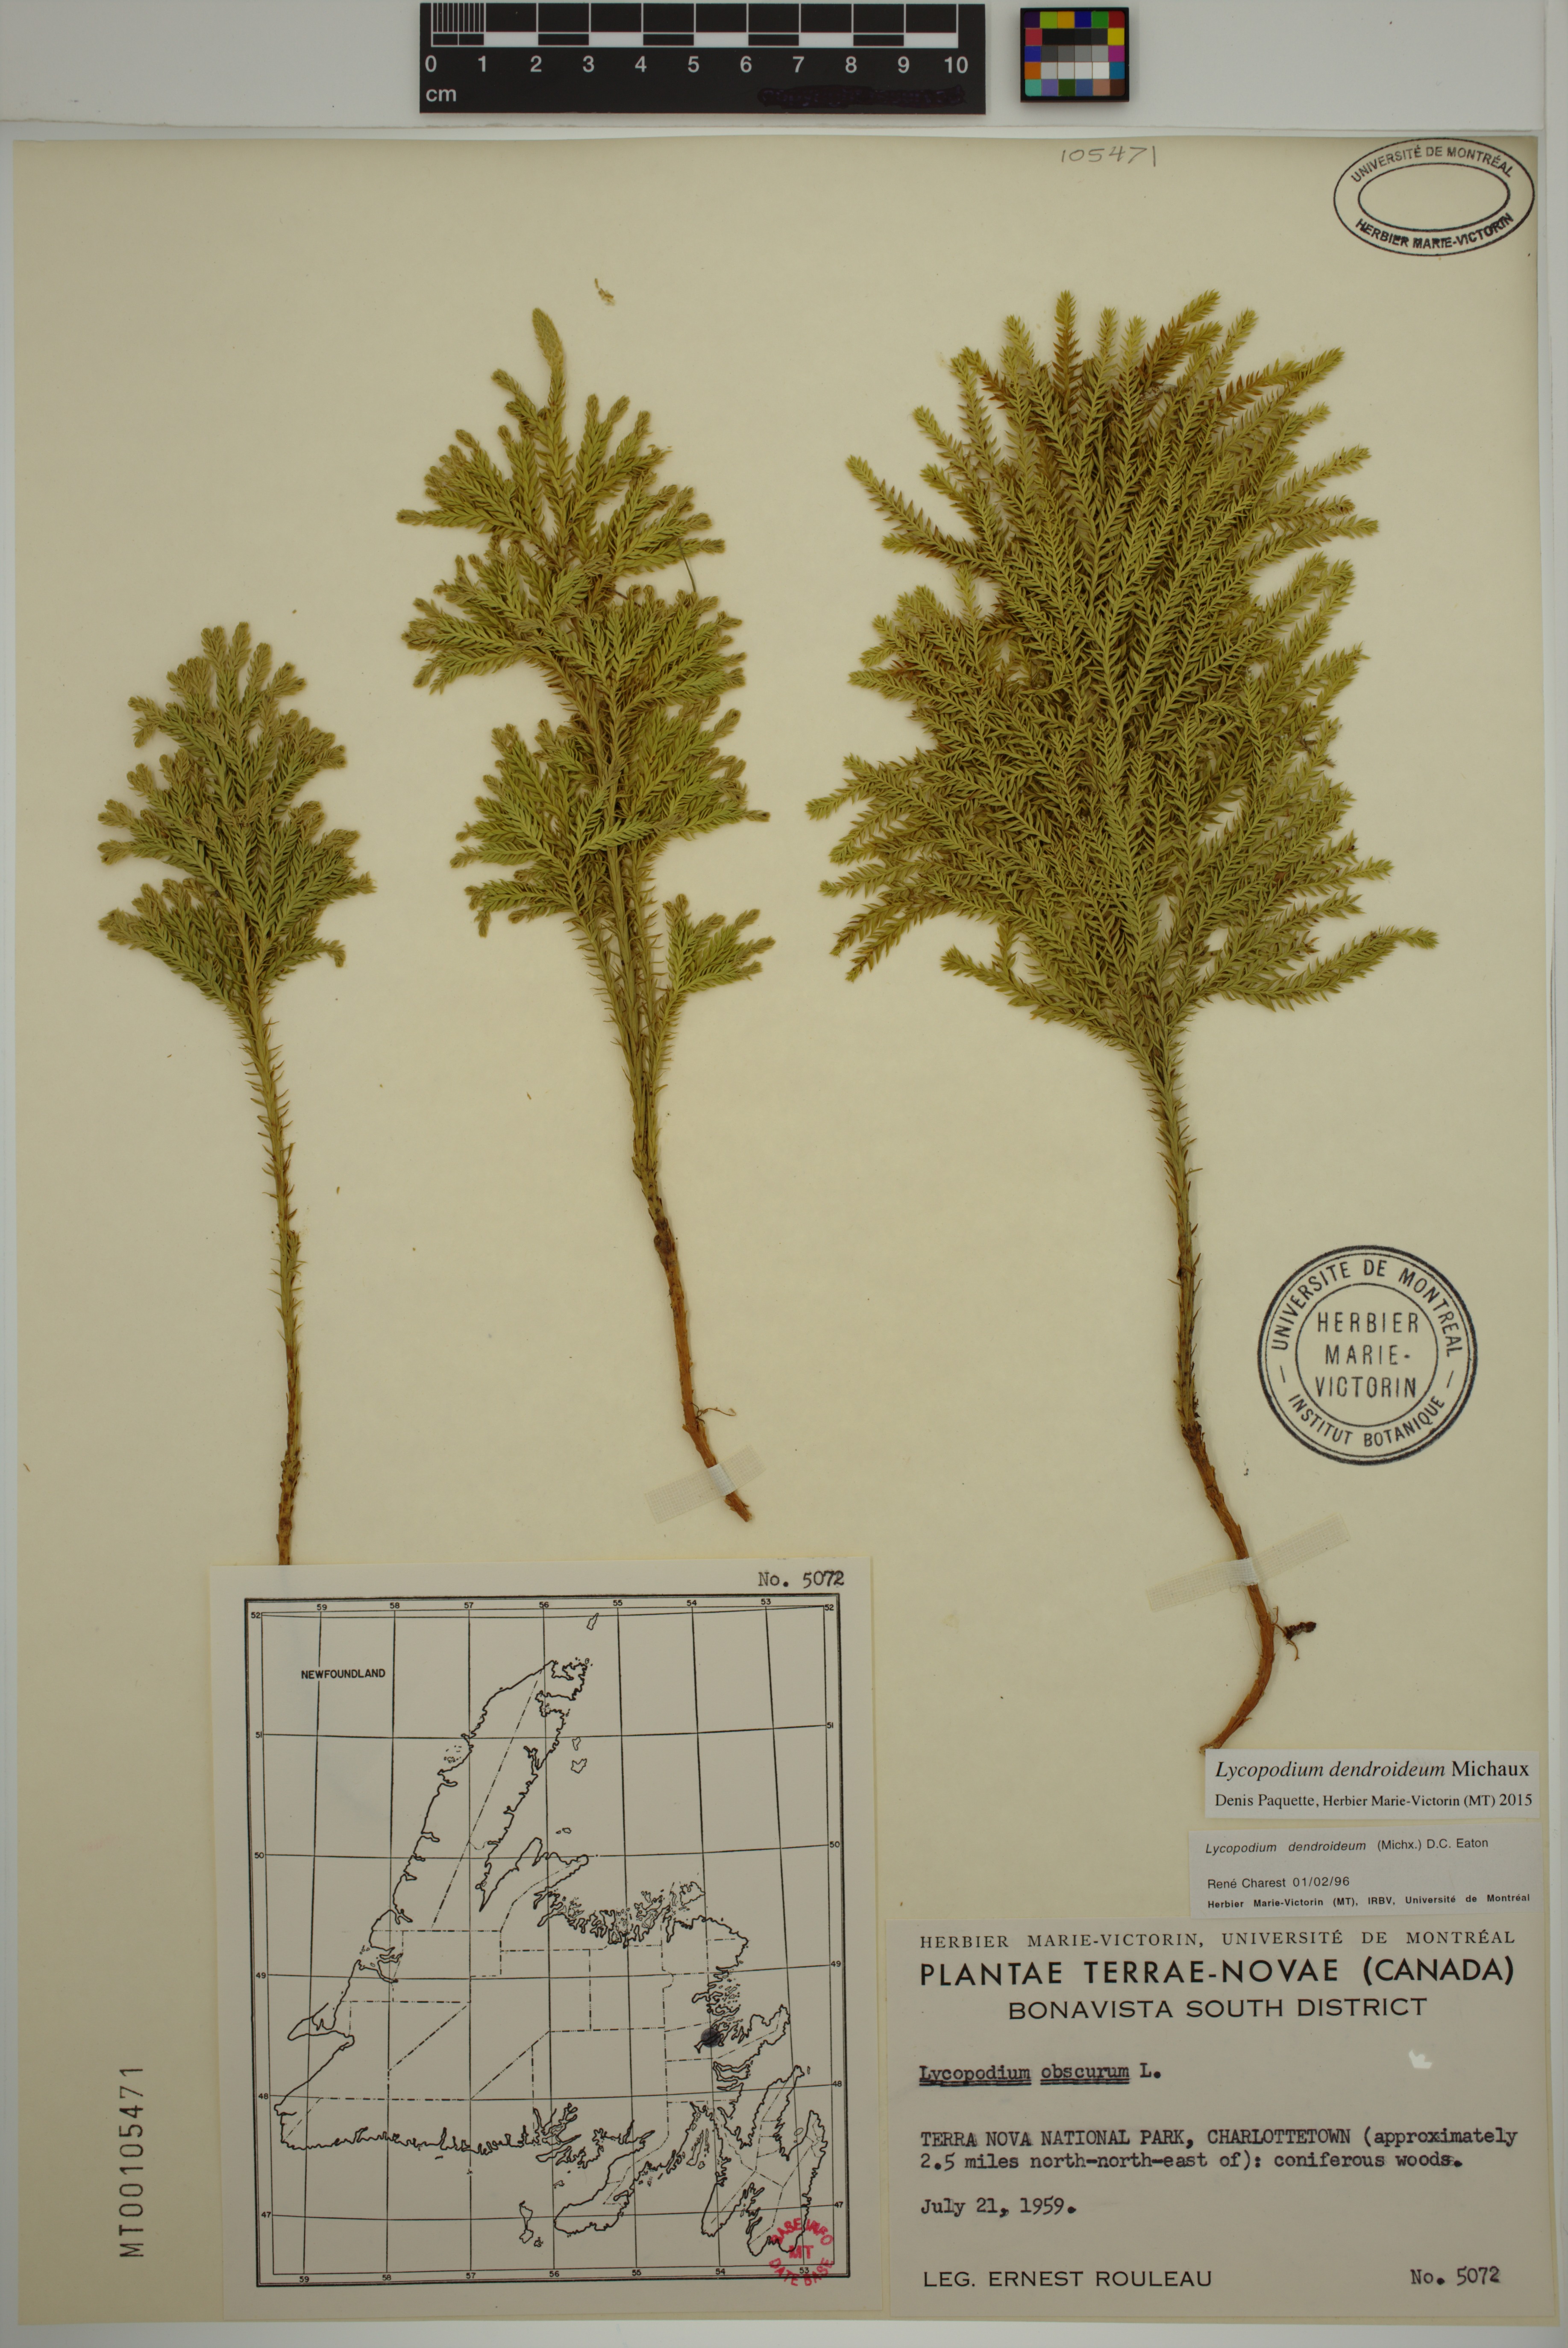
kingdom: Plantae
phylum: Tracheophyta
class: Lycopodiopsida
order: Lycopodiales
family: Lycopodiaceae
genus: Dendrolycopodium
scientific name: Dendrolycopodium dendroideum
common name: Northern tree-clubmoss
